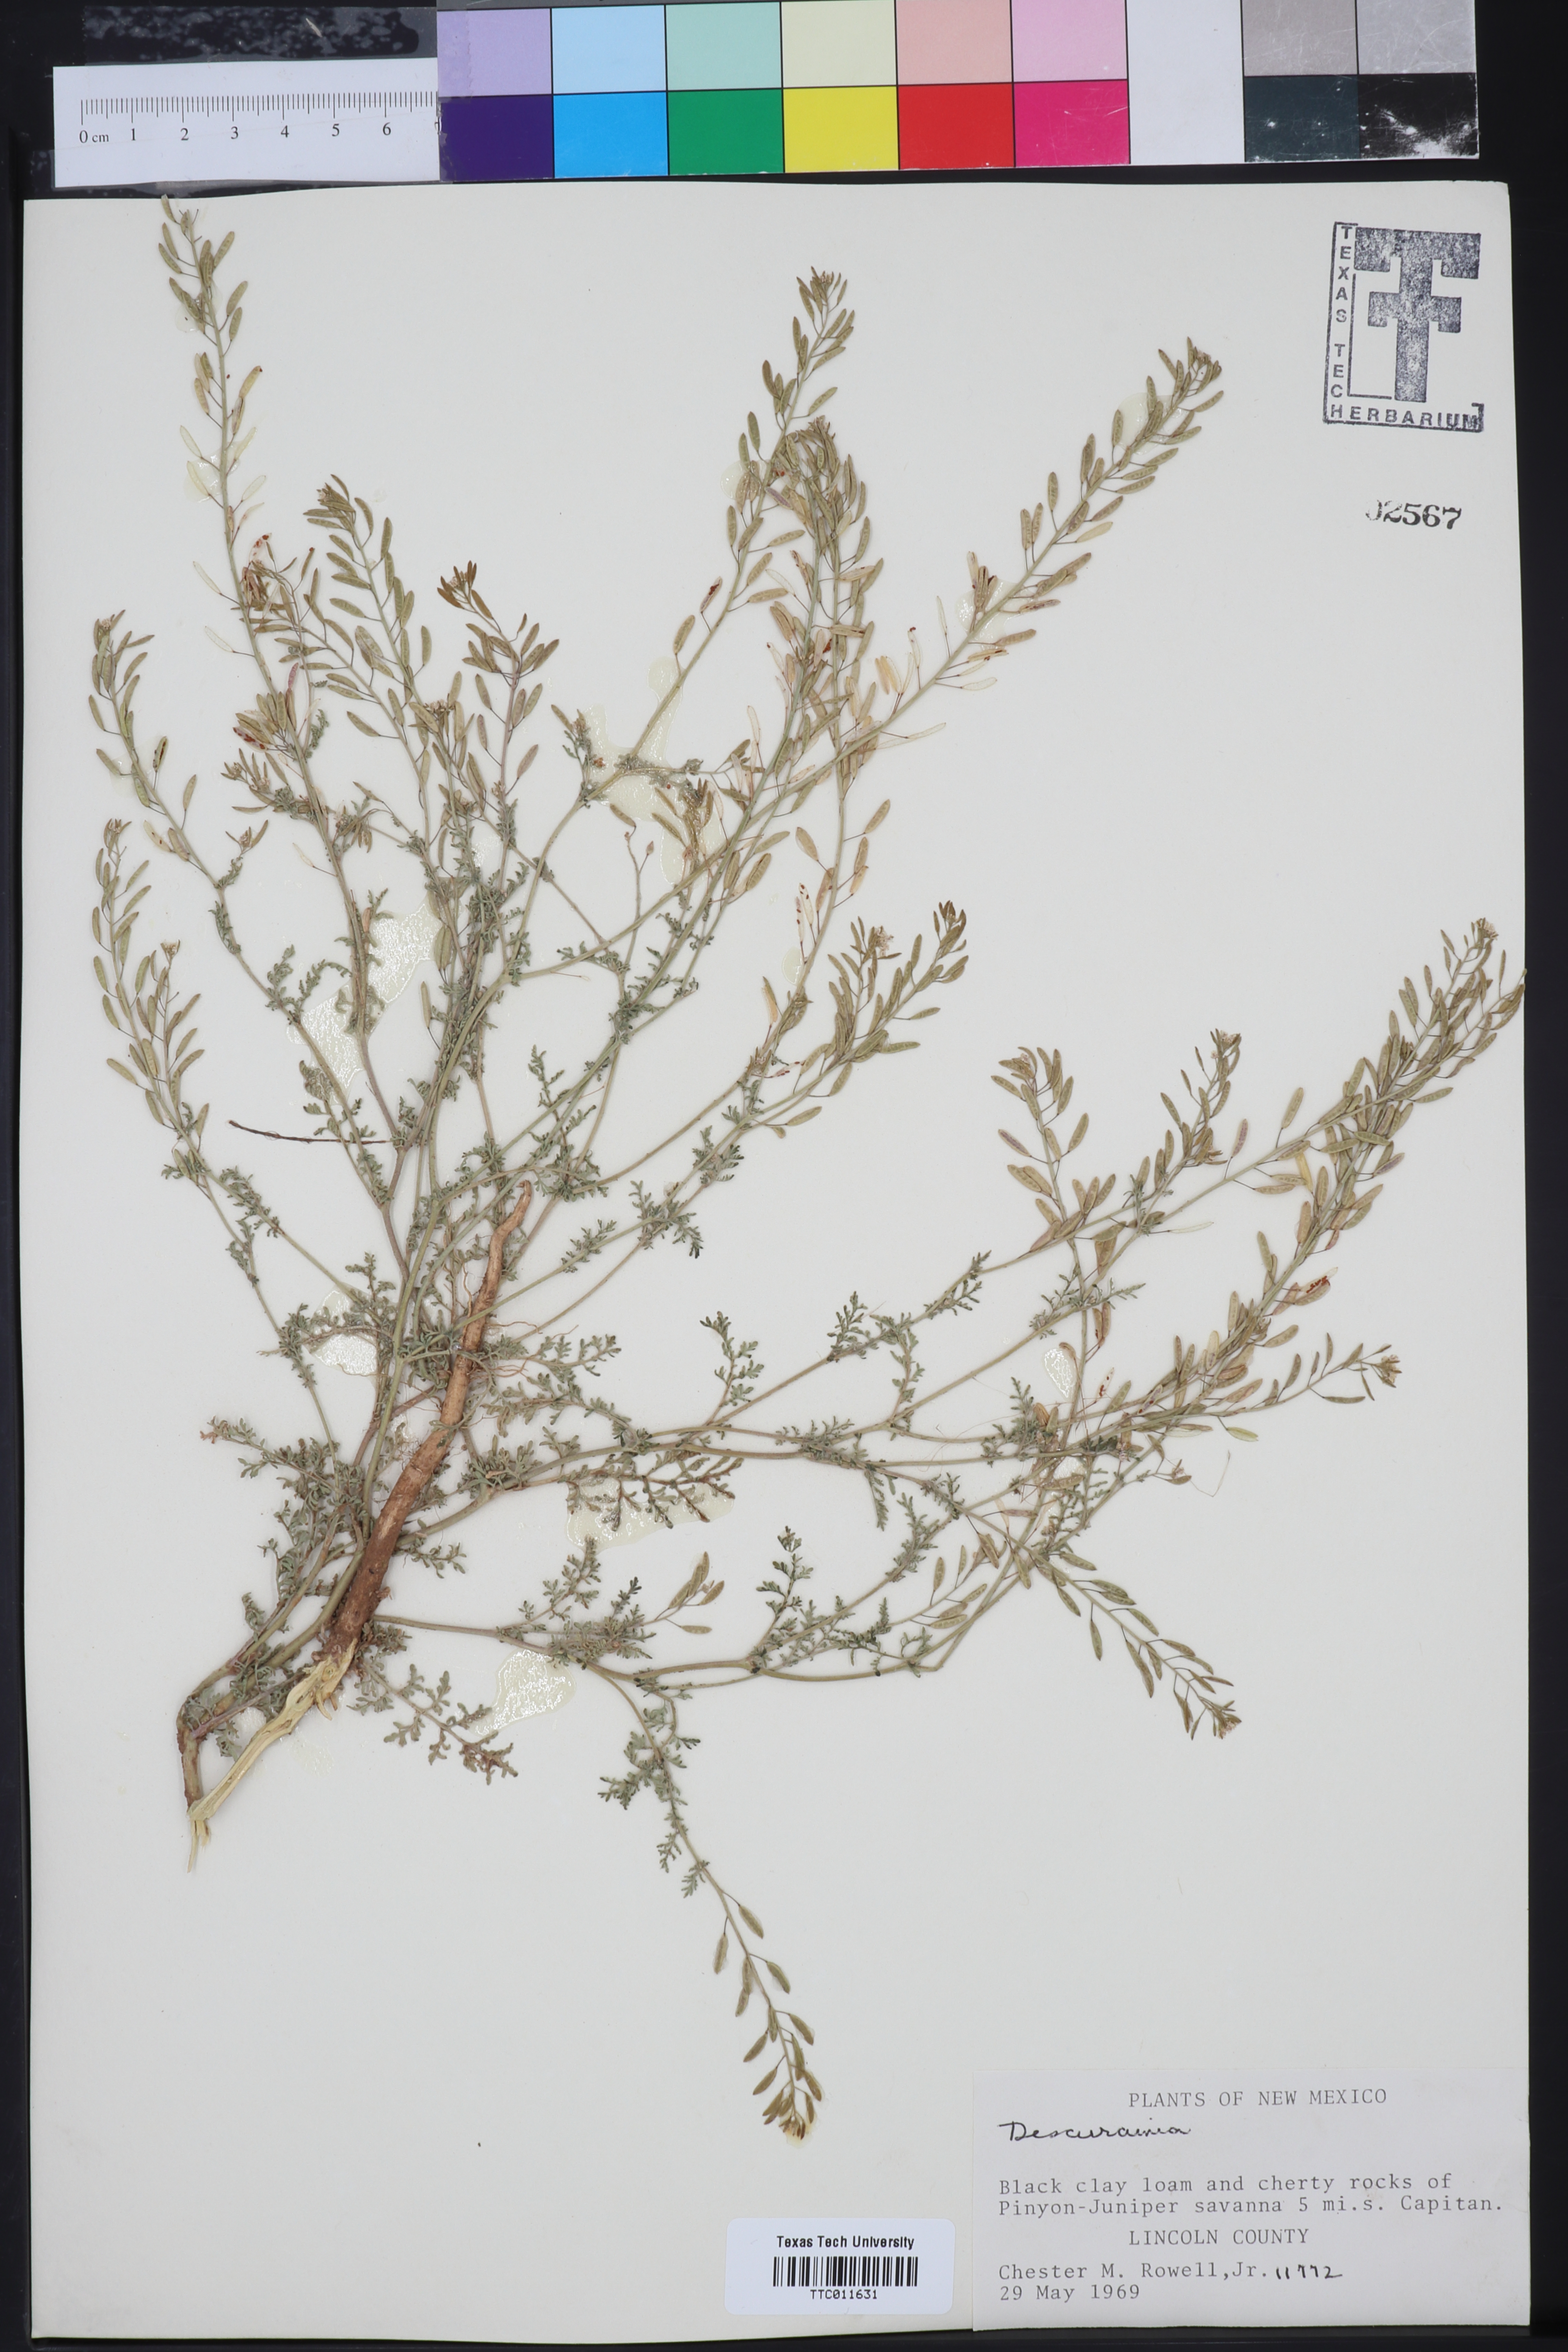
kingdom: Plantae
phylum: Tracheophyta
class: Magnoliopsida
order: Brassicales
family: Brassicaceae
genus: Descurainia
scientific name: Descurainia
